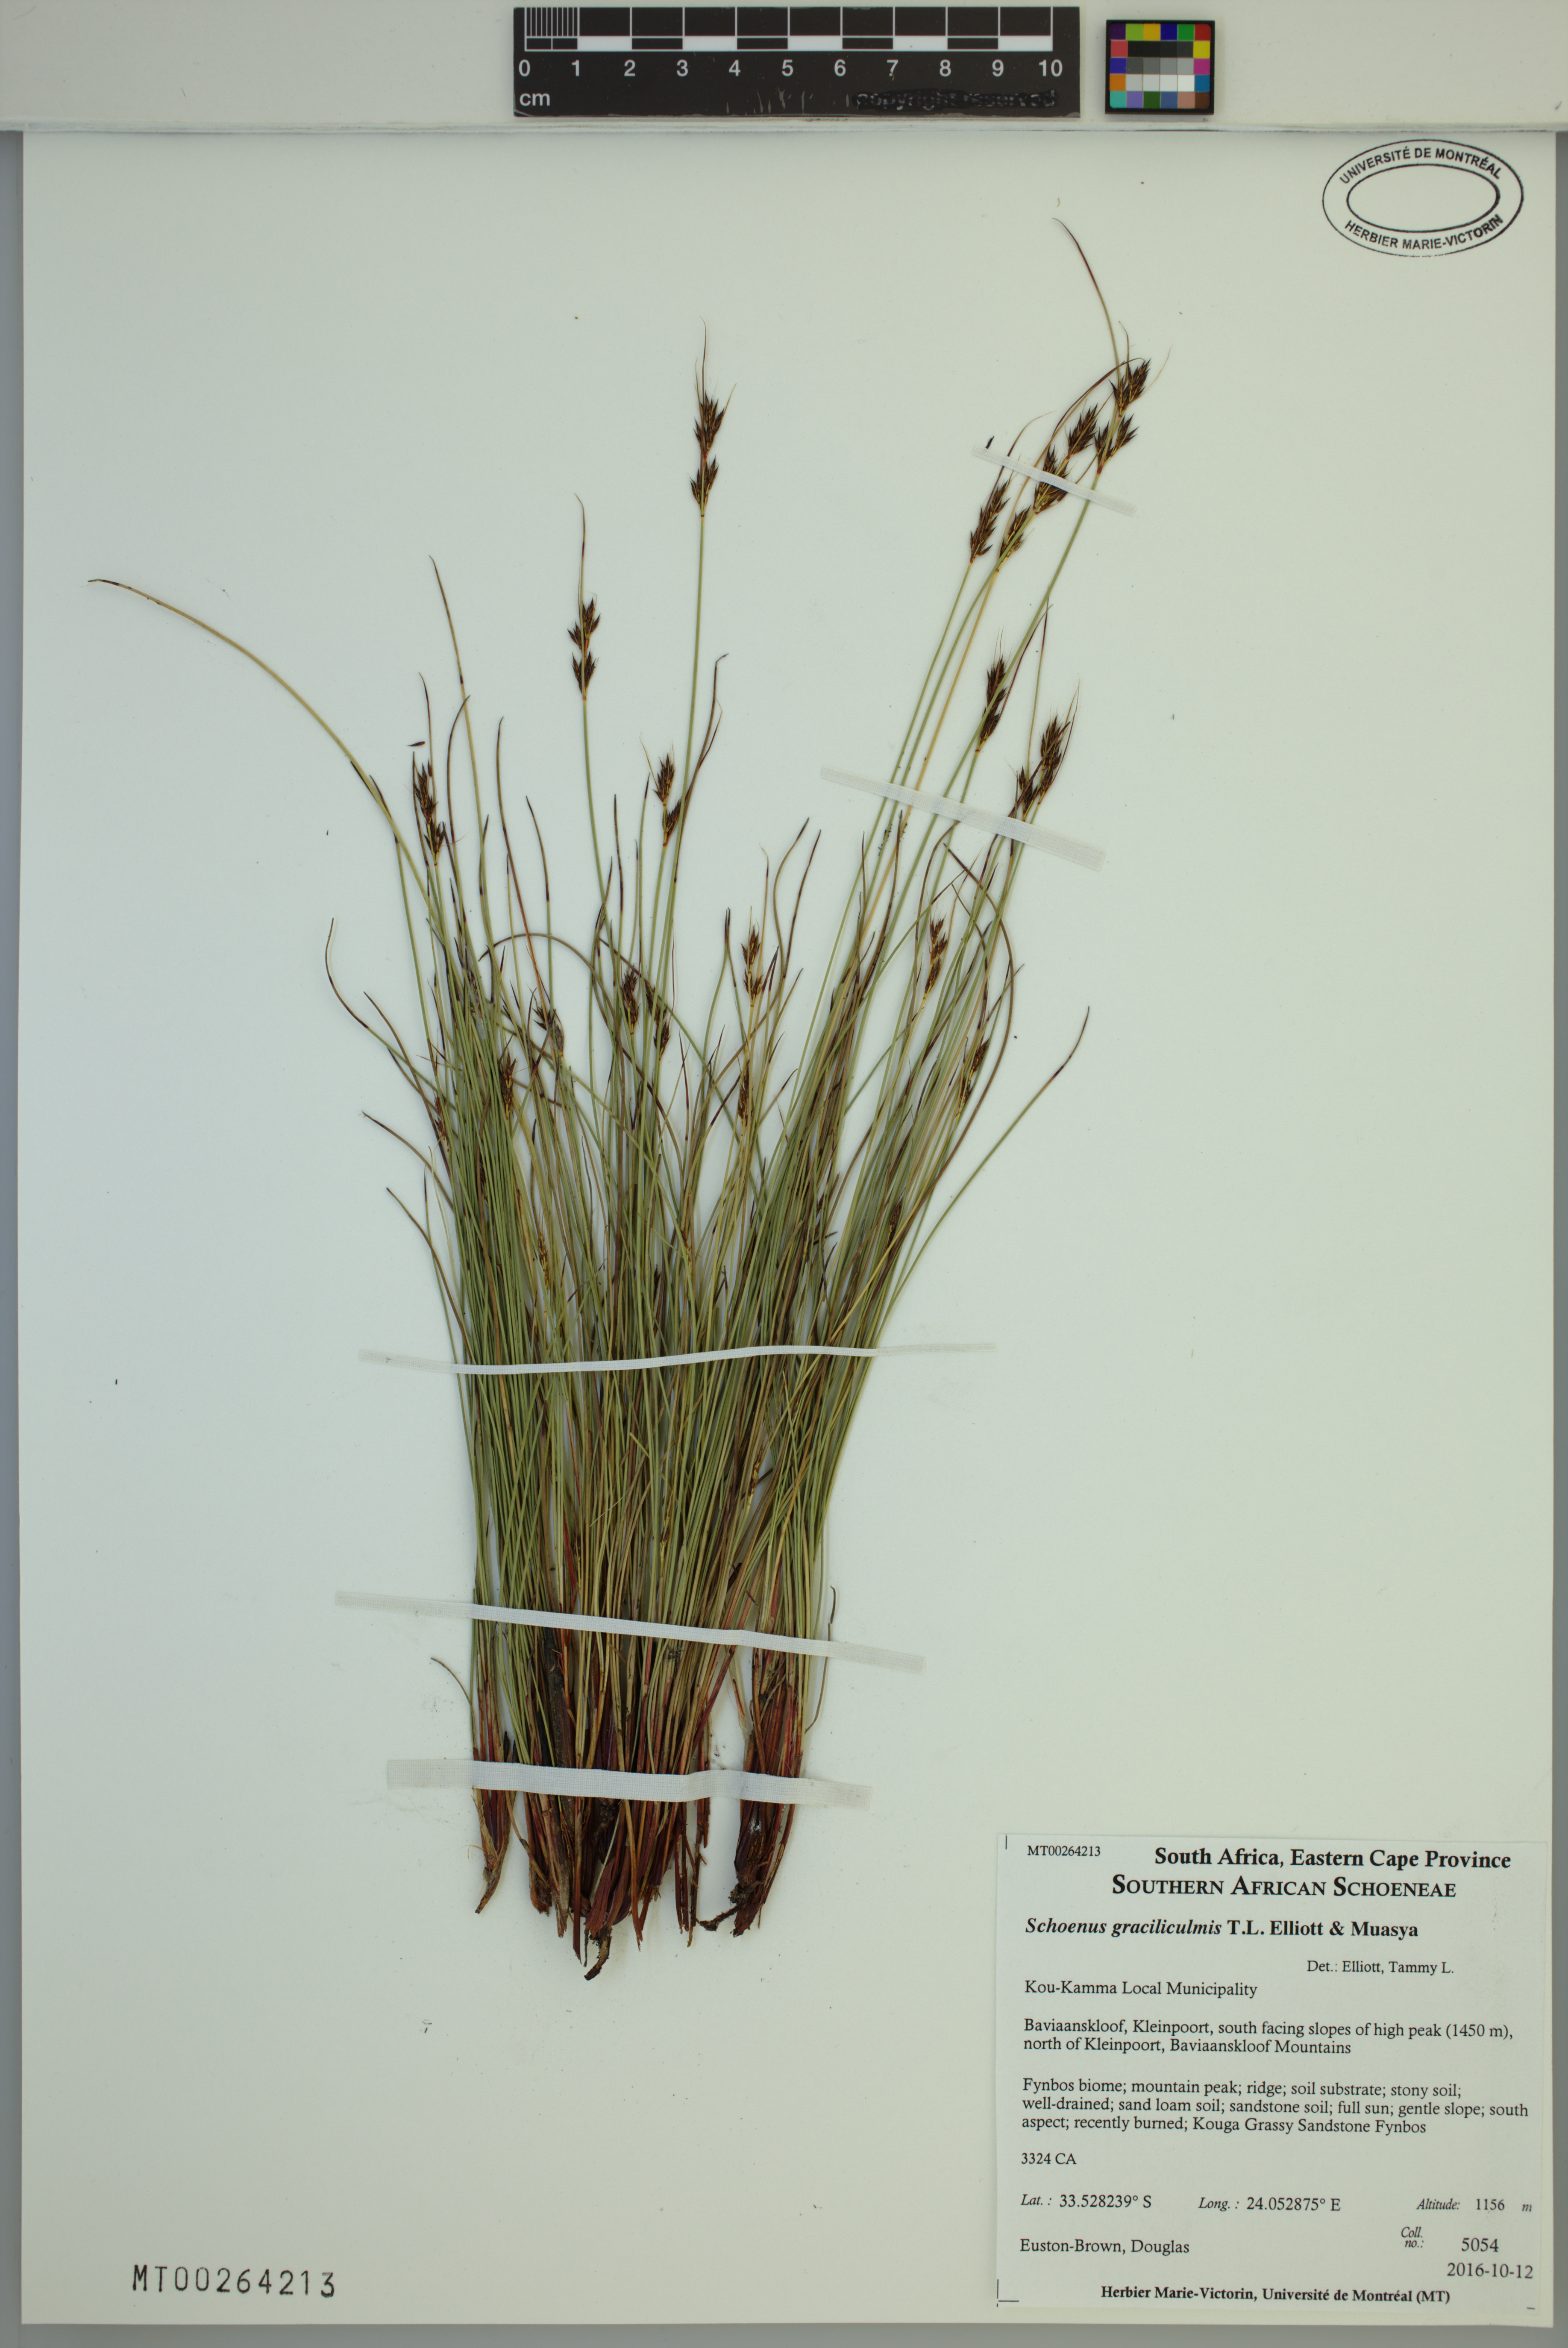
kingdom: Plantae
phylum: Tracheophyta
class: Liliopsida
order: Poales
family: Cyperaceae
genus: Schoenus
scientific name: Schoenus graciliculmis
